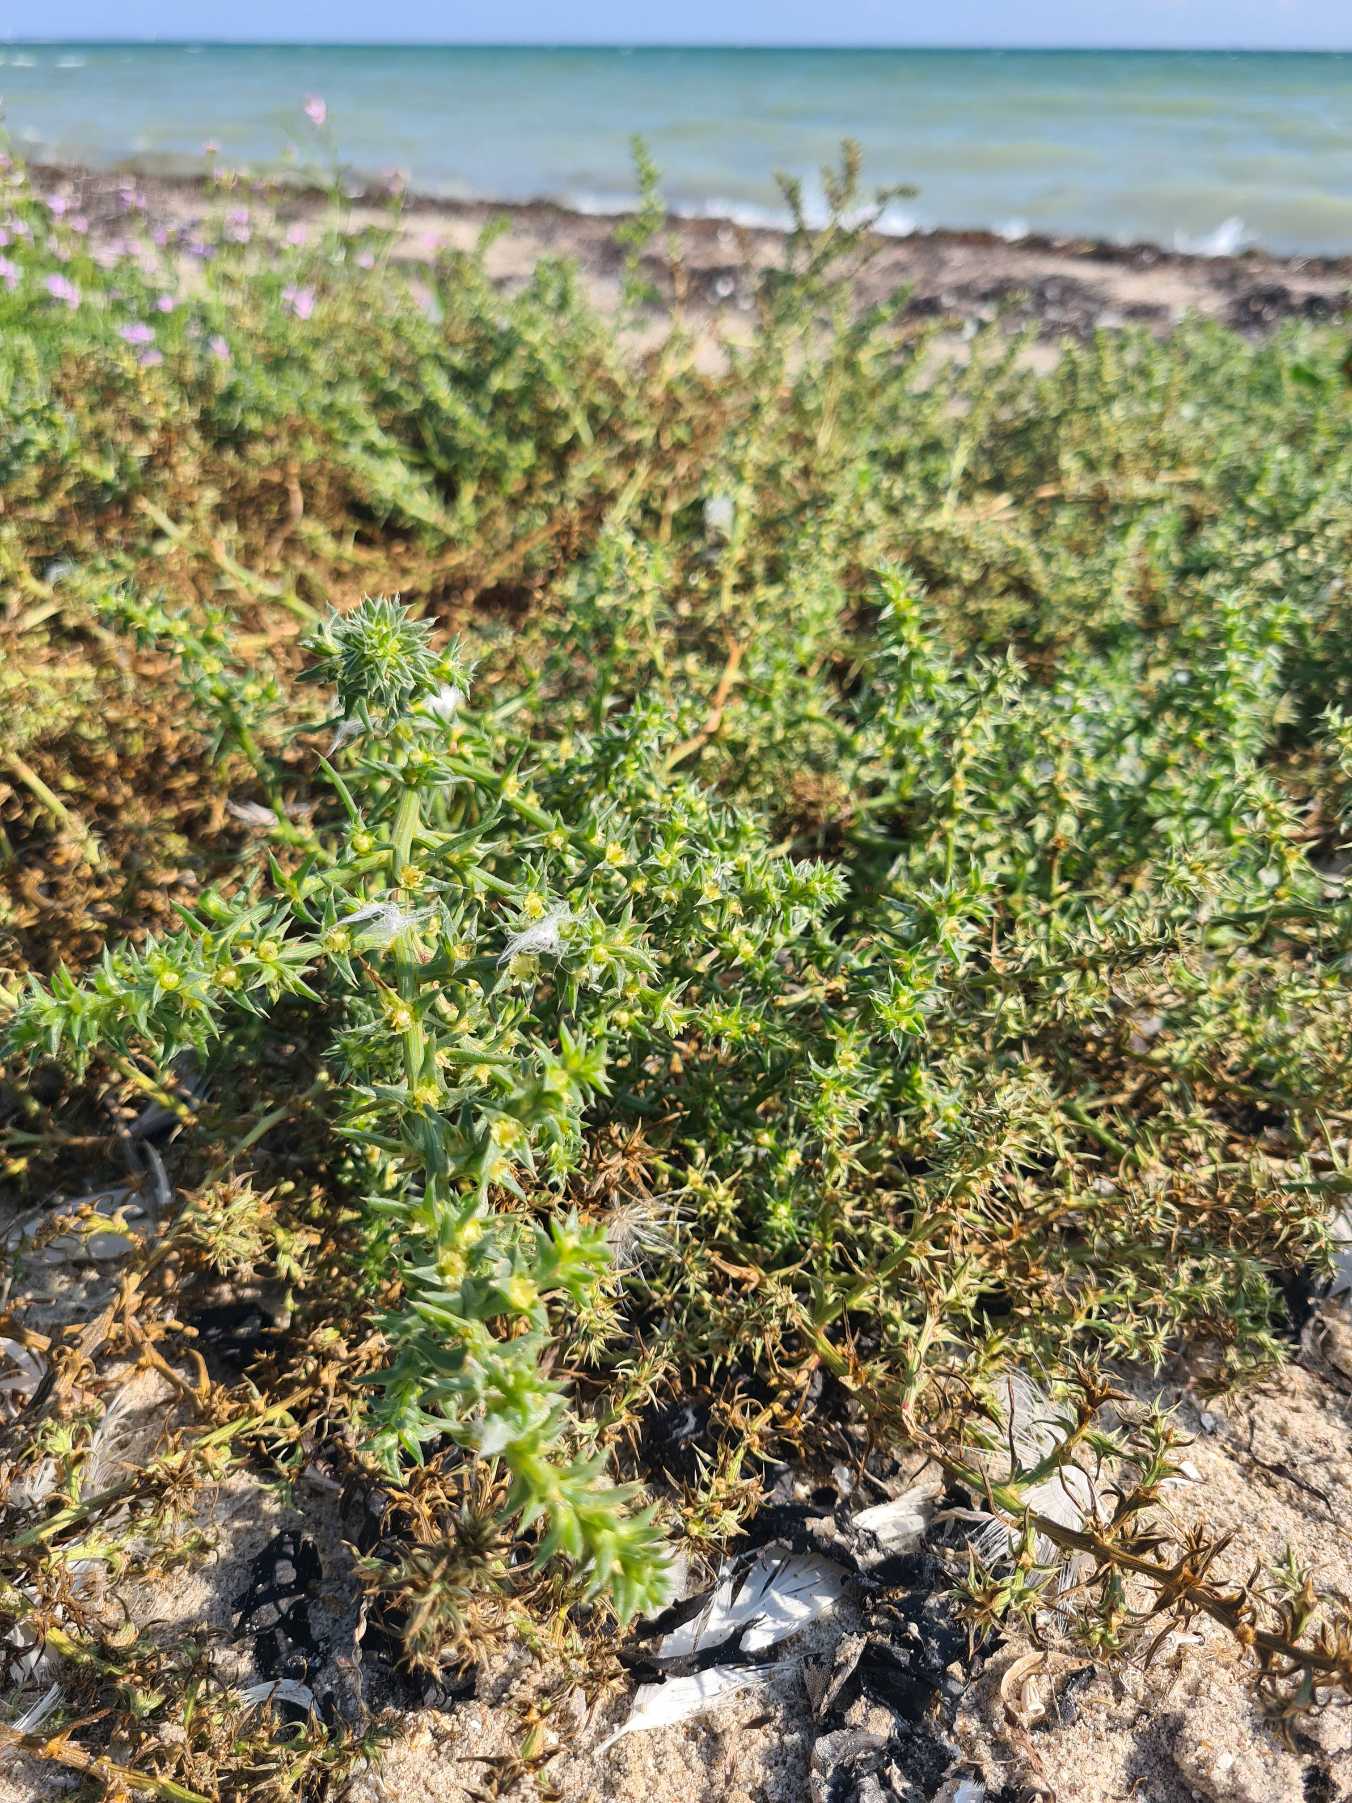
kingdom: Plantae
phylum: Tracheophyta
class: Magnoliopsida
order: Caryophyllales
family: Amaranthaceae
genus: Salsola
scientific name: Salsola kali
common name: Sodaurt
